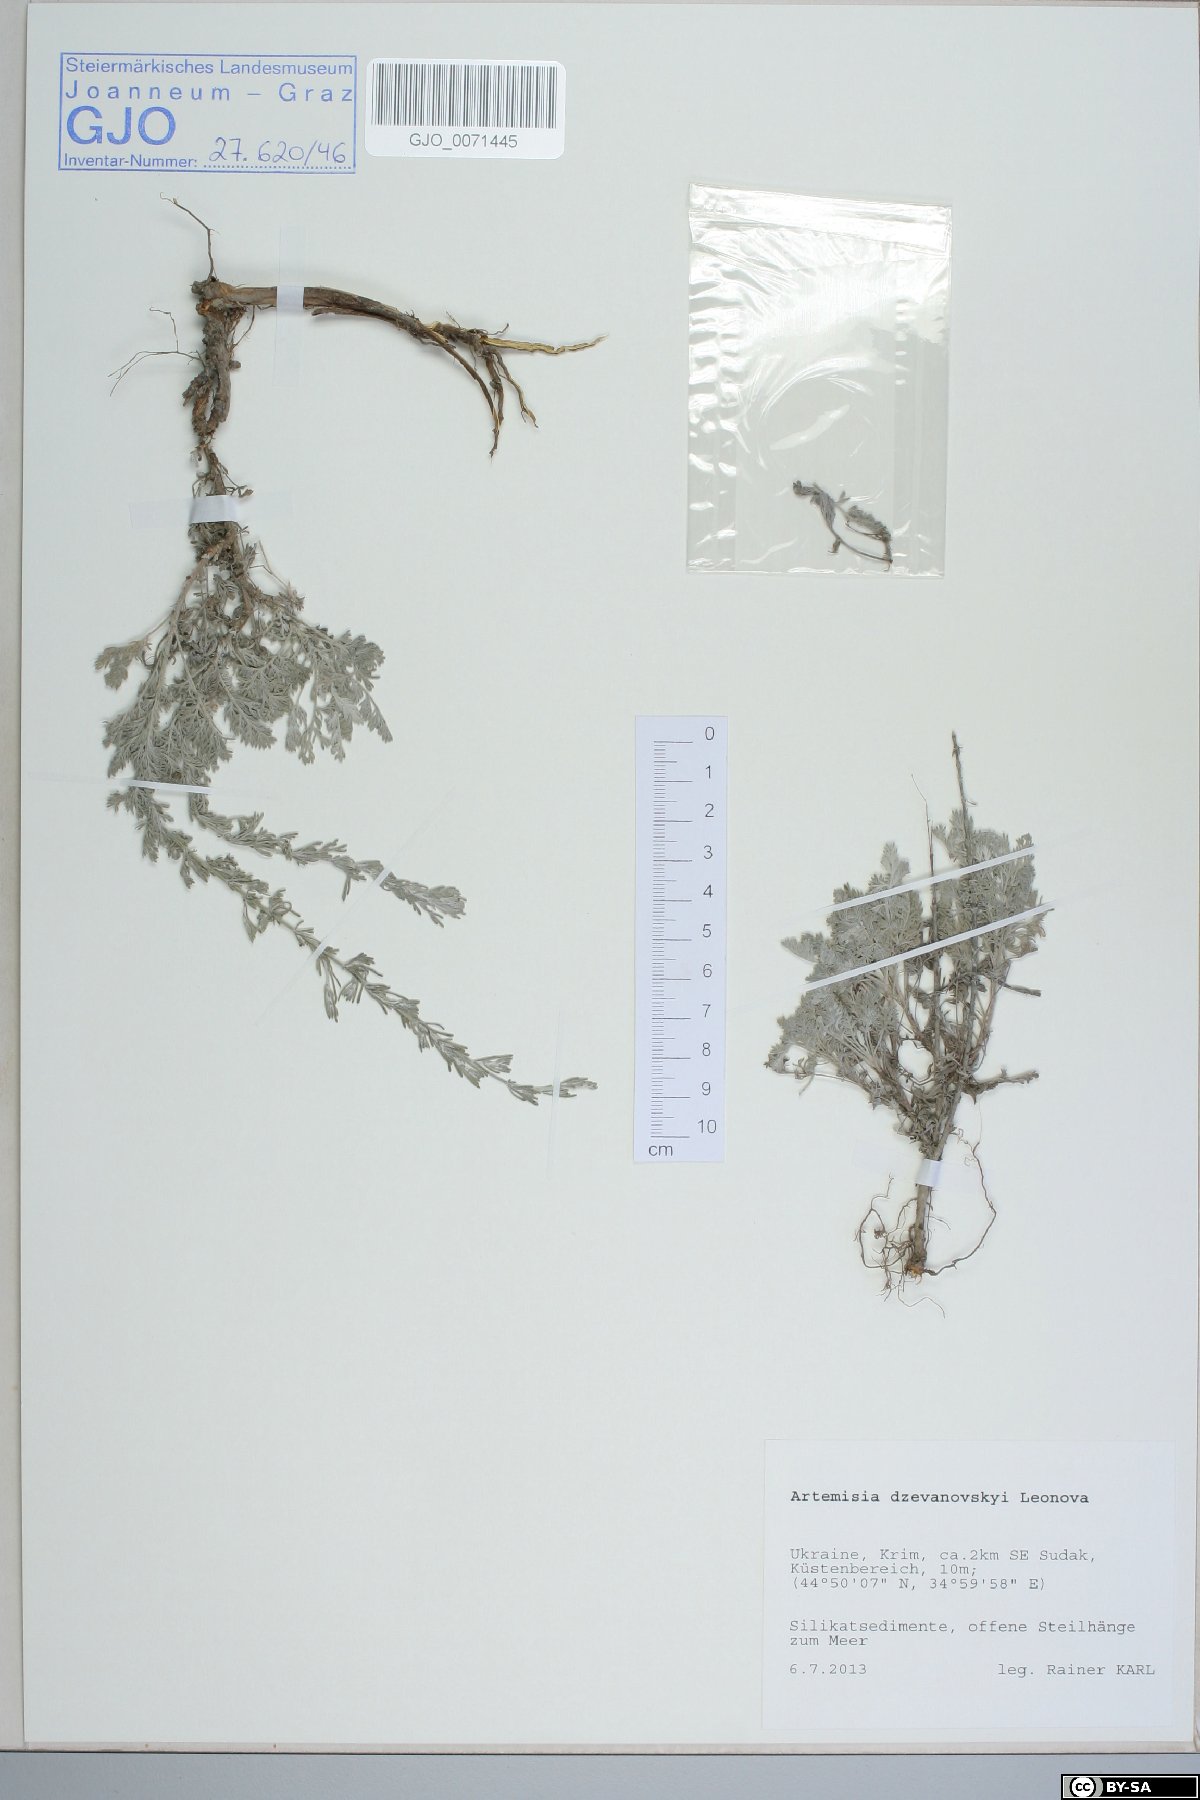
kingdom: Plantae
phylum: Tracheophyta
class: Magnoliopsida
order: Asterales
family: Asteraceae
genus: Artemisia
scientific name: Artemisia dzevanovskyi
